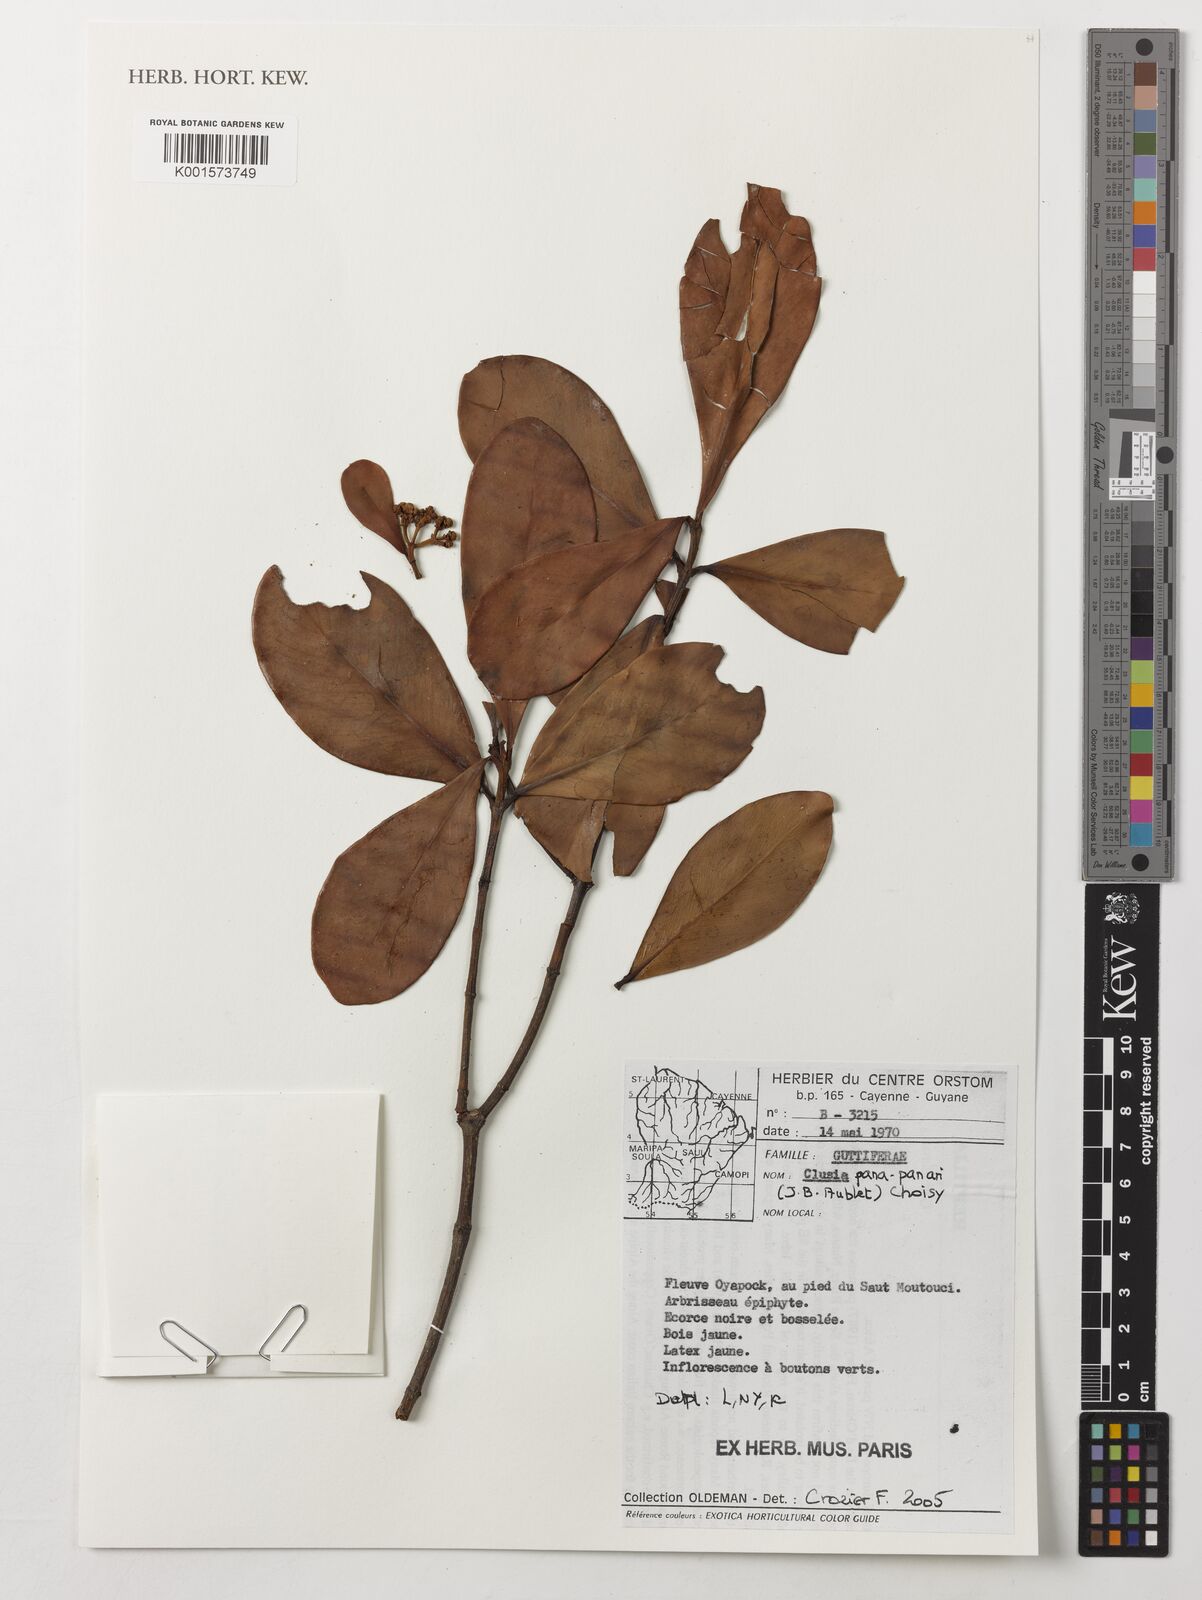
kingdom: Plantae
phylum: Tracheophyta
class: Magnoliopsida
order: Malpighiales
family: Clusiaceae
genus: Clusia
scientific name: Clusia panapanari
